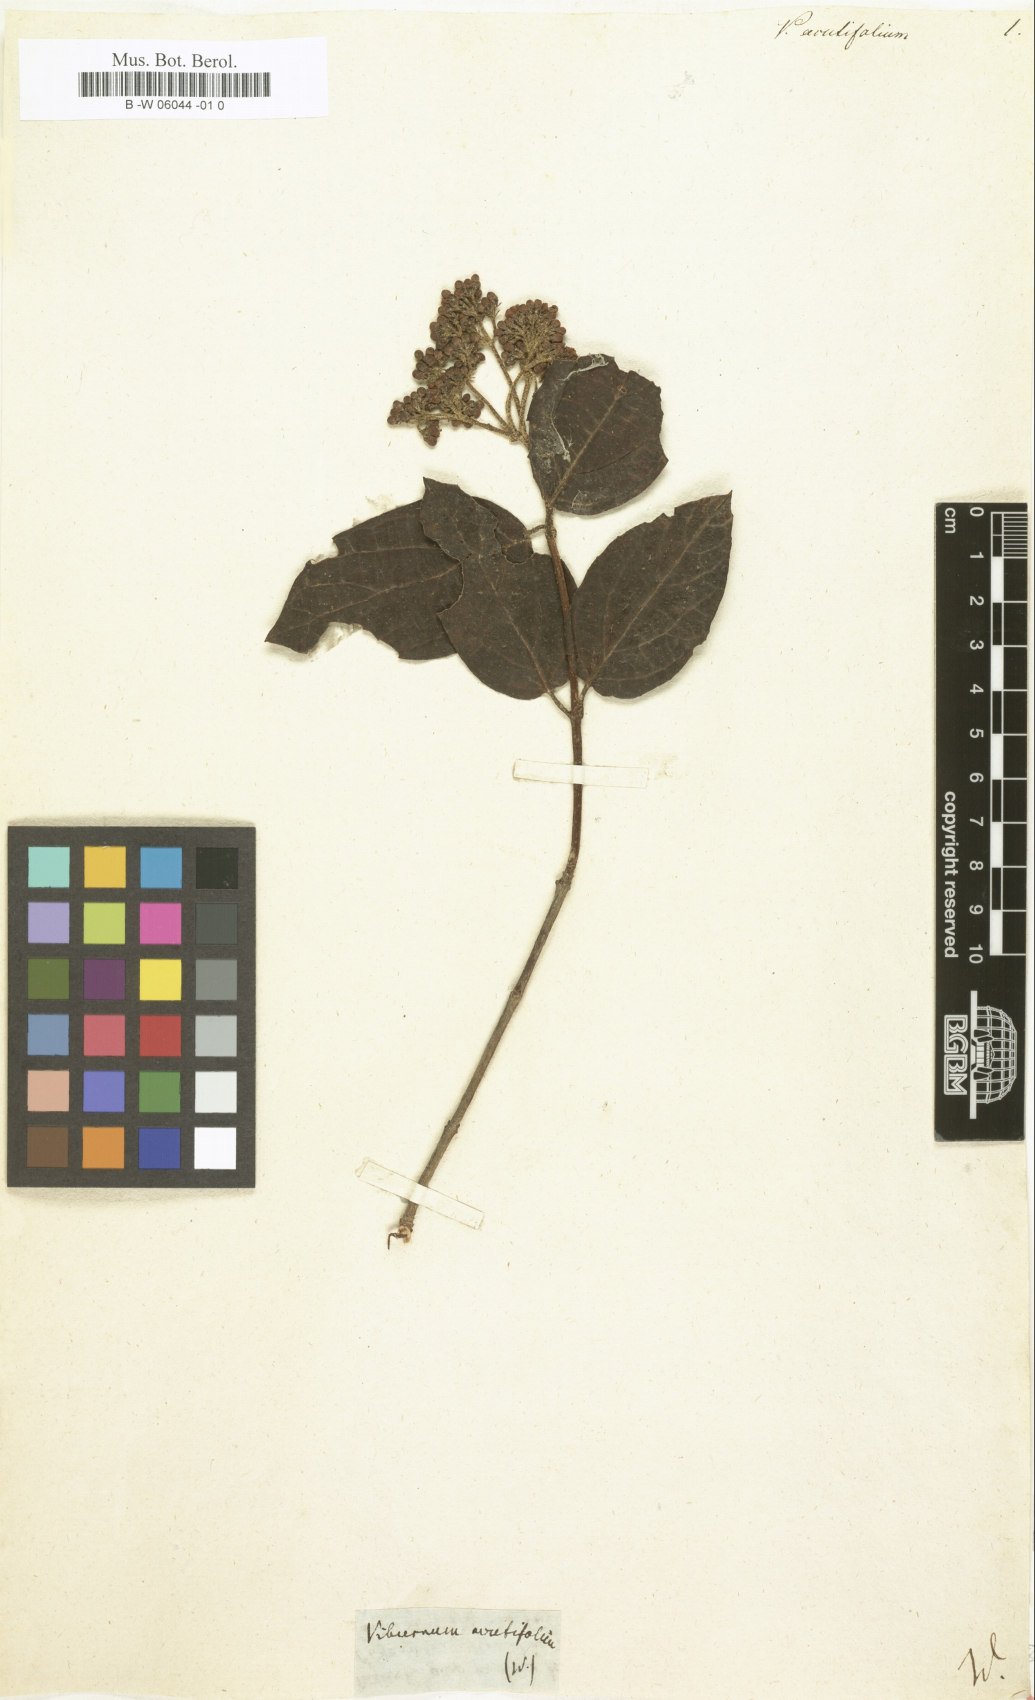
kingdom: Plantae
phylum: Tracheophyta
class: Magnoliopsida
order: Dipsacales
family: Viburnaceae
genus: Viburnum
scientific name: Viburnum acutifolium
